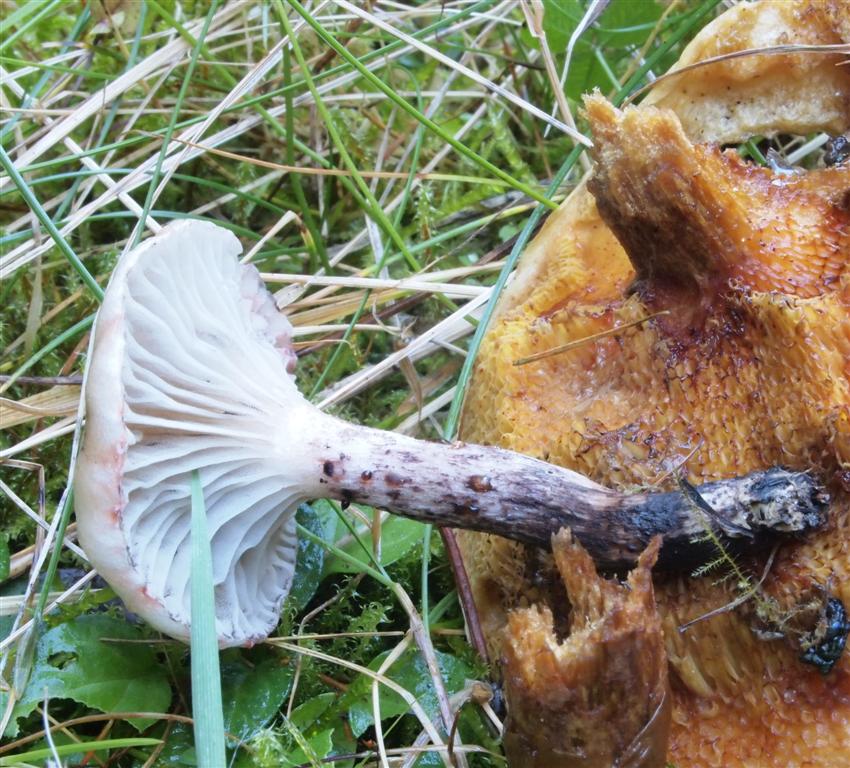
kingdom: Fungi
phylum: Basidiomycota
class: Agaricomycetes
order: Boletales
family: Gomphidiaceae
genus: Gomphidius
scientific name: Gomphidius maculatus
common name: rødmende slimslør
